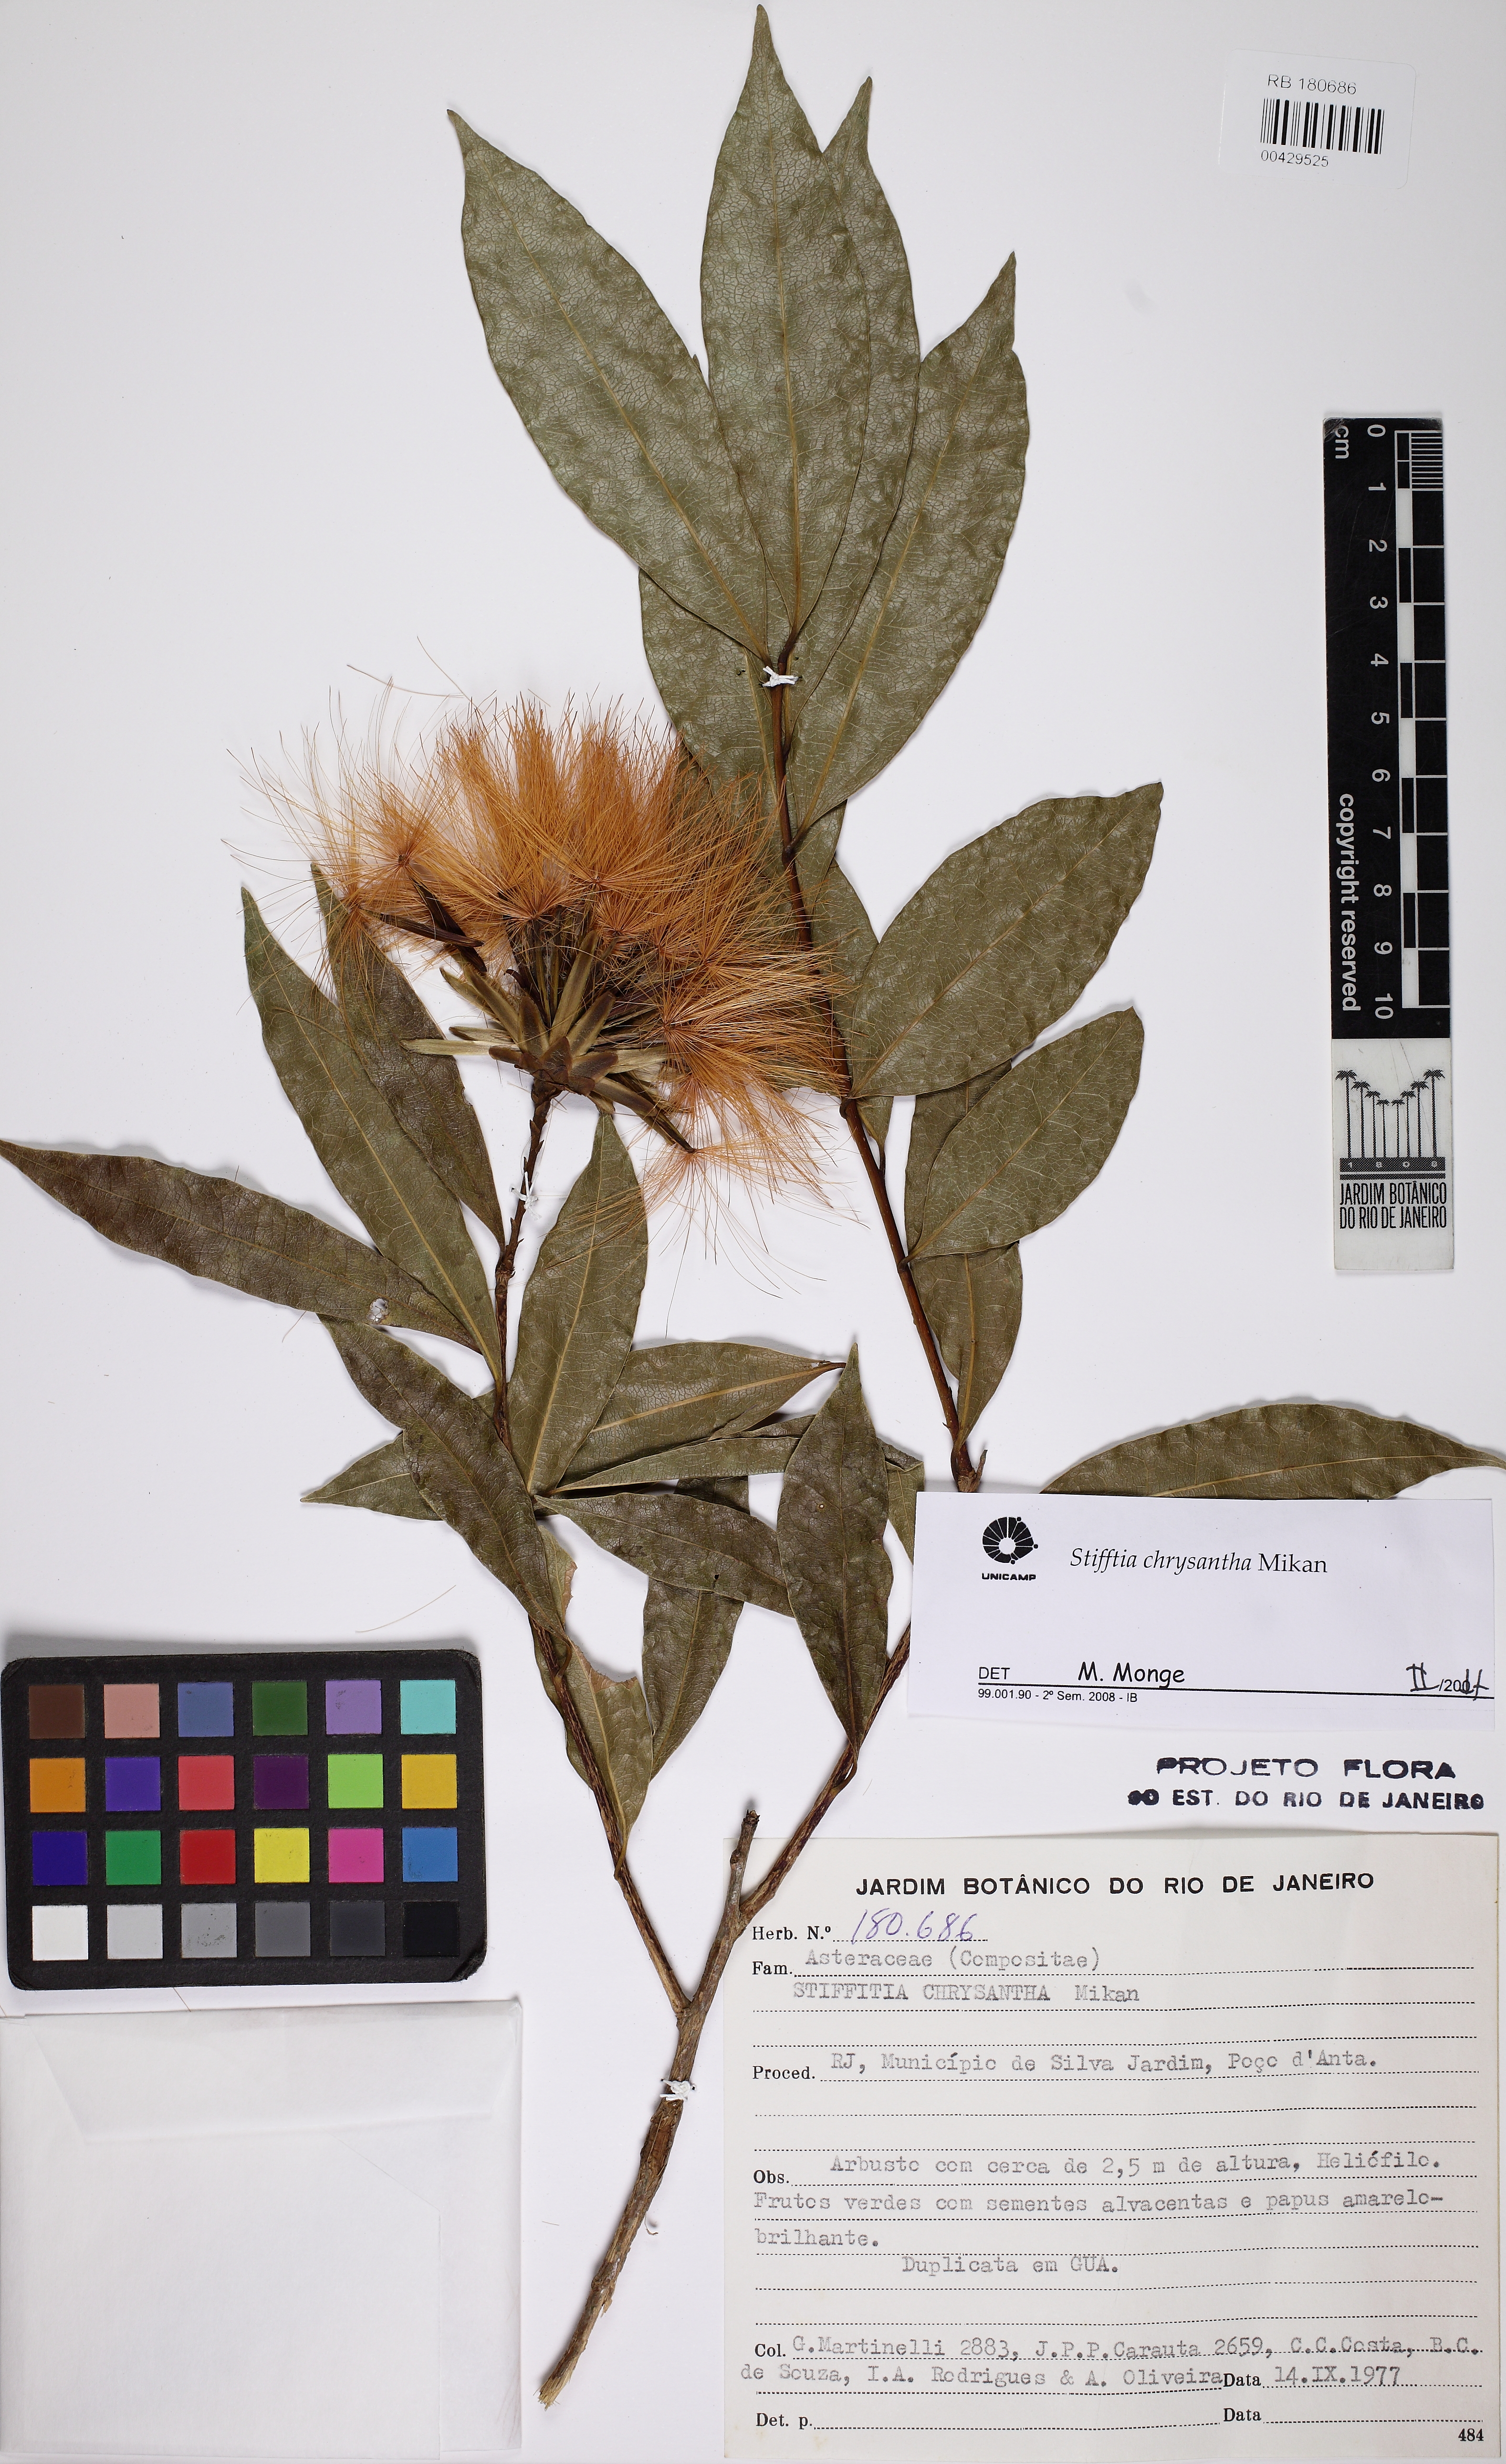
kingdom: Plantae
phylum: Tracheophyta
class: Magnoliopsida
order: Asterales
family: Asteraceae
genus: Stifftia
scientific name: Stifftia chrysantha
